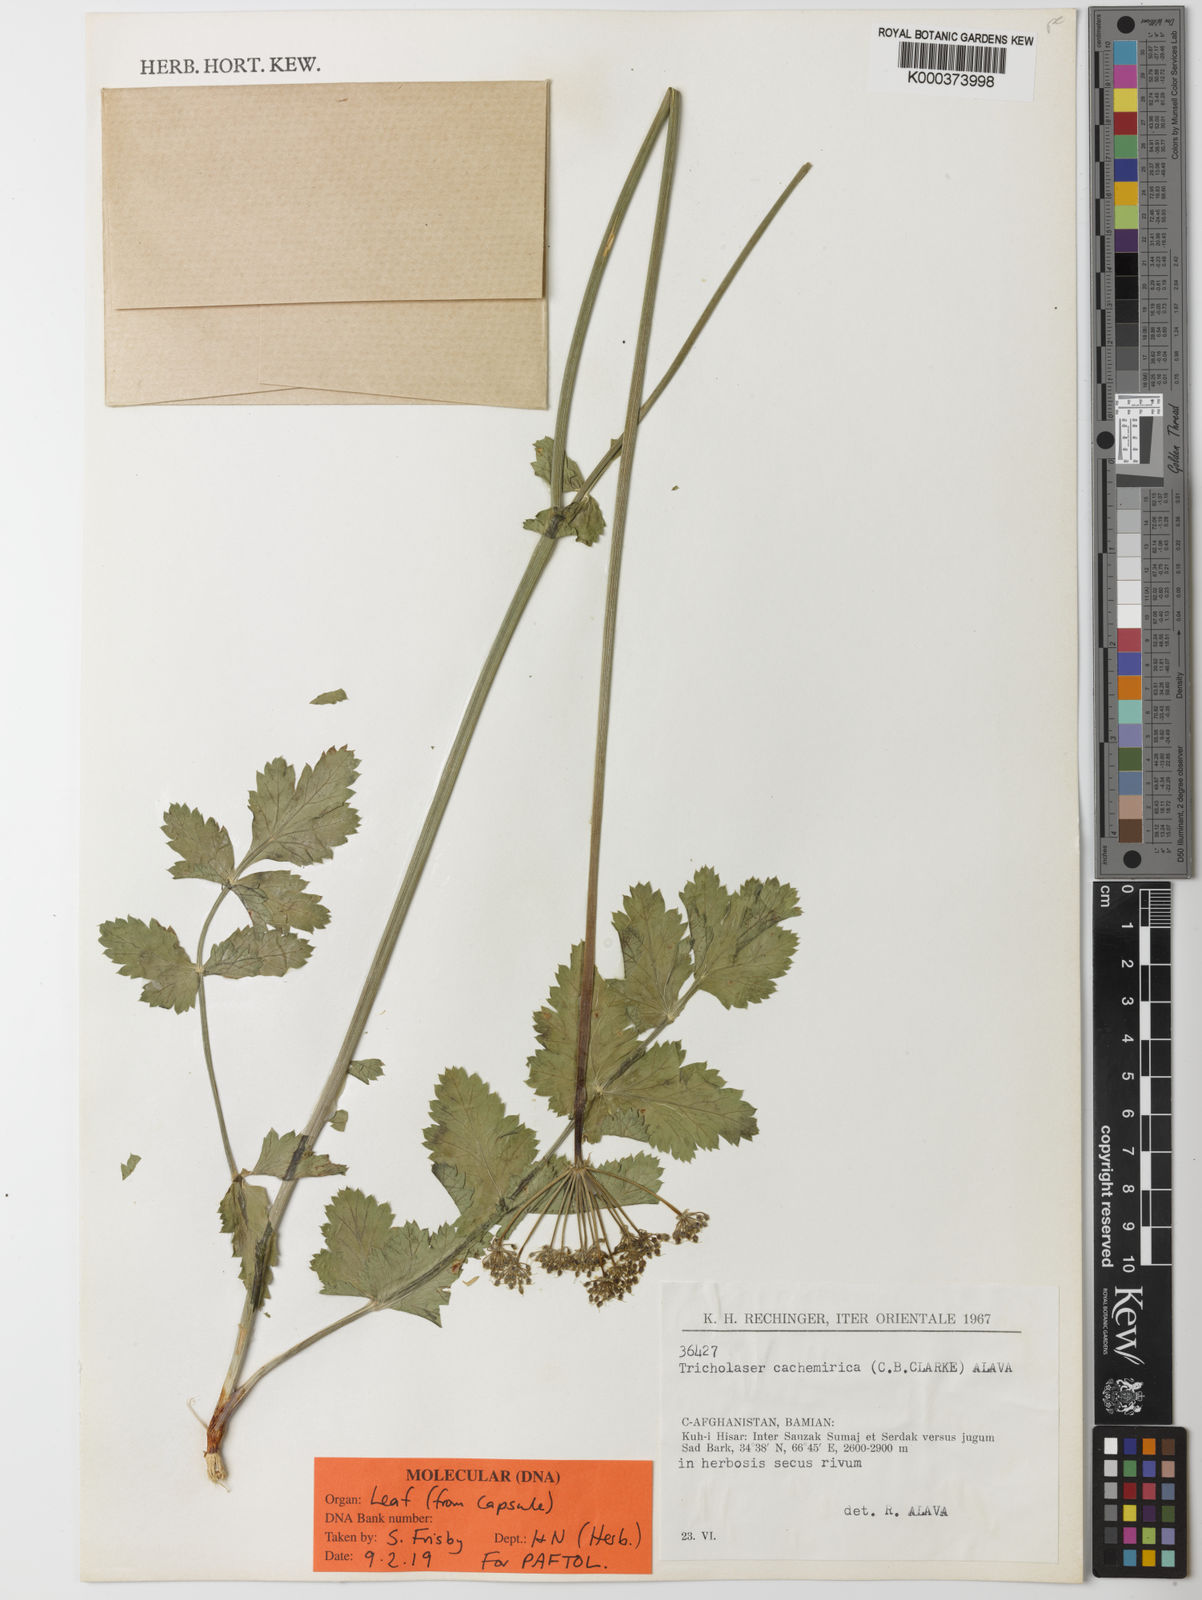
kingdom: Plantae
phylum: Tracheophyta
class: Magnoliopsida
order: Apiales
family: Apiaceae
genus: Tricholaser
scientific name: Tricholaser cachemiricum
